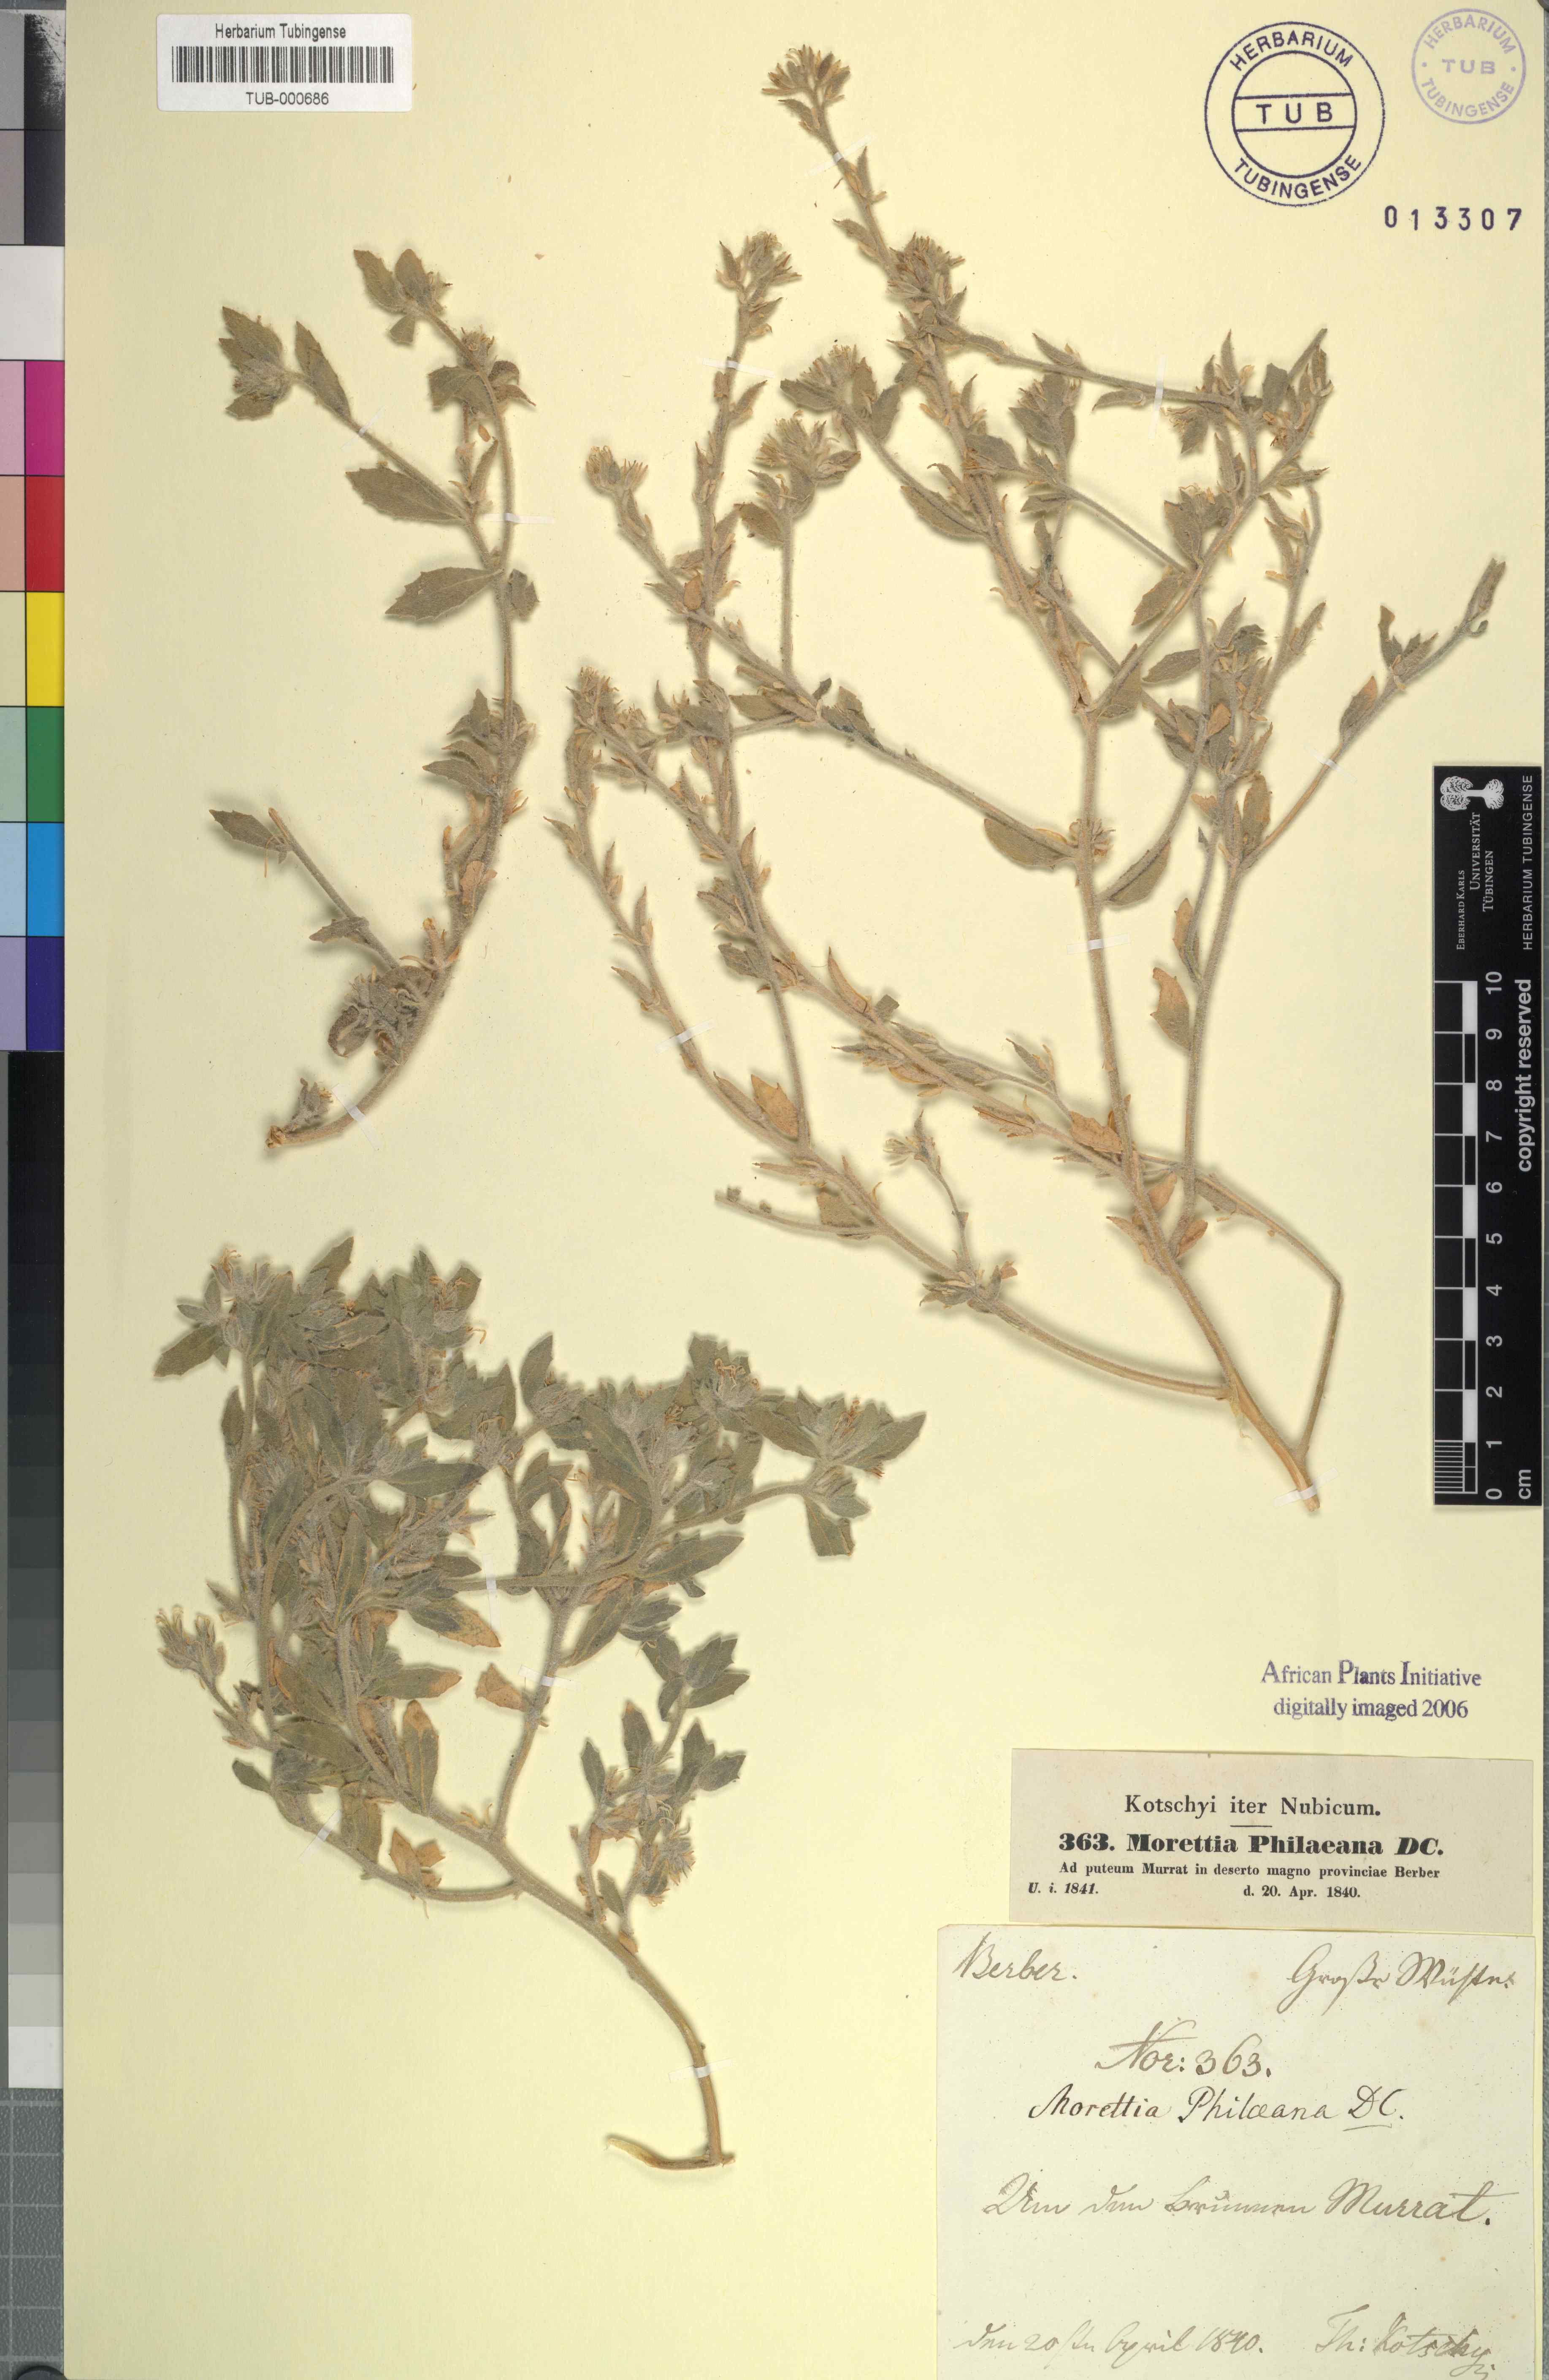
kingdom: Plantae
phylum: Tracheophyta
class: Magnoliopsida
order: Brassicales
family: Brassicaceae
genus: Morettia
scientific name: Morettia philaeana
